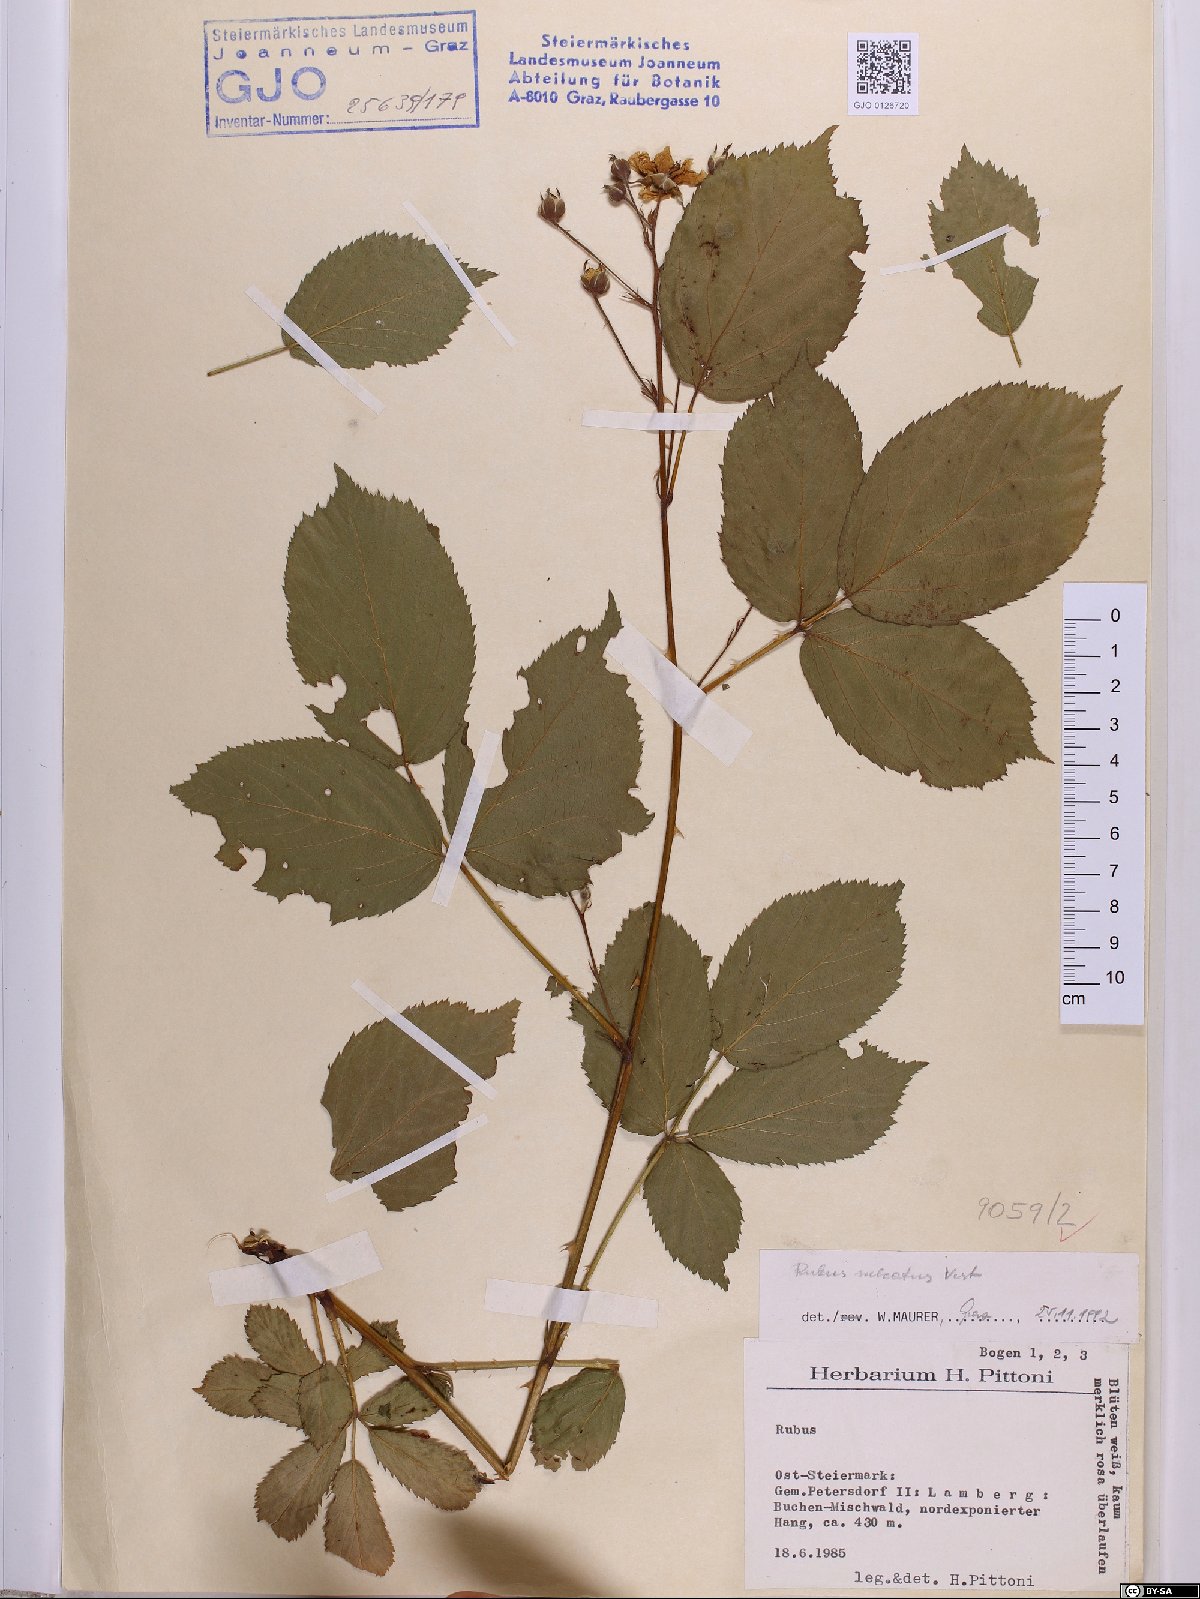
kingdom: Plantae
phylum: Tracheophyta
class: Magnoliopsida
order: Rosales
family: Rosaceae
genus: Rubus
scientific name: Rubus sulcatus
